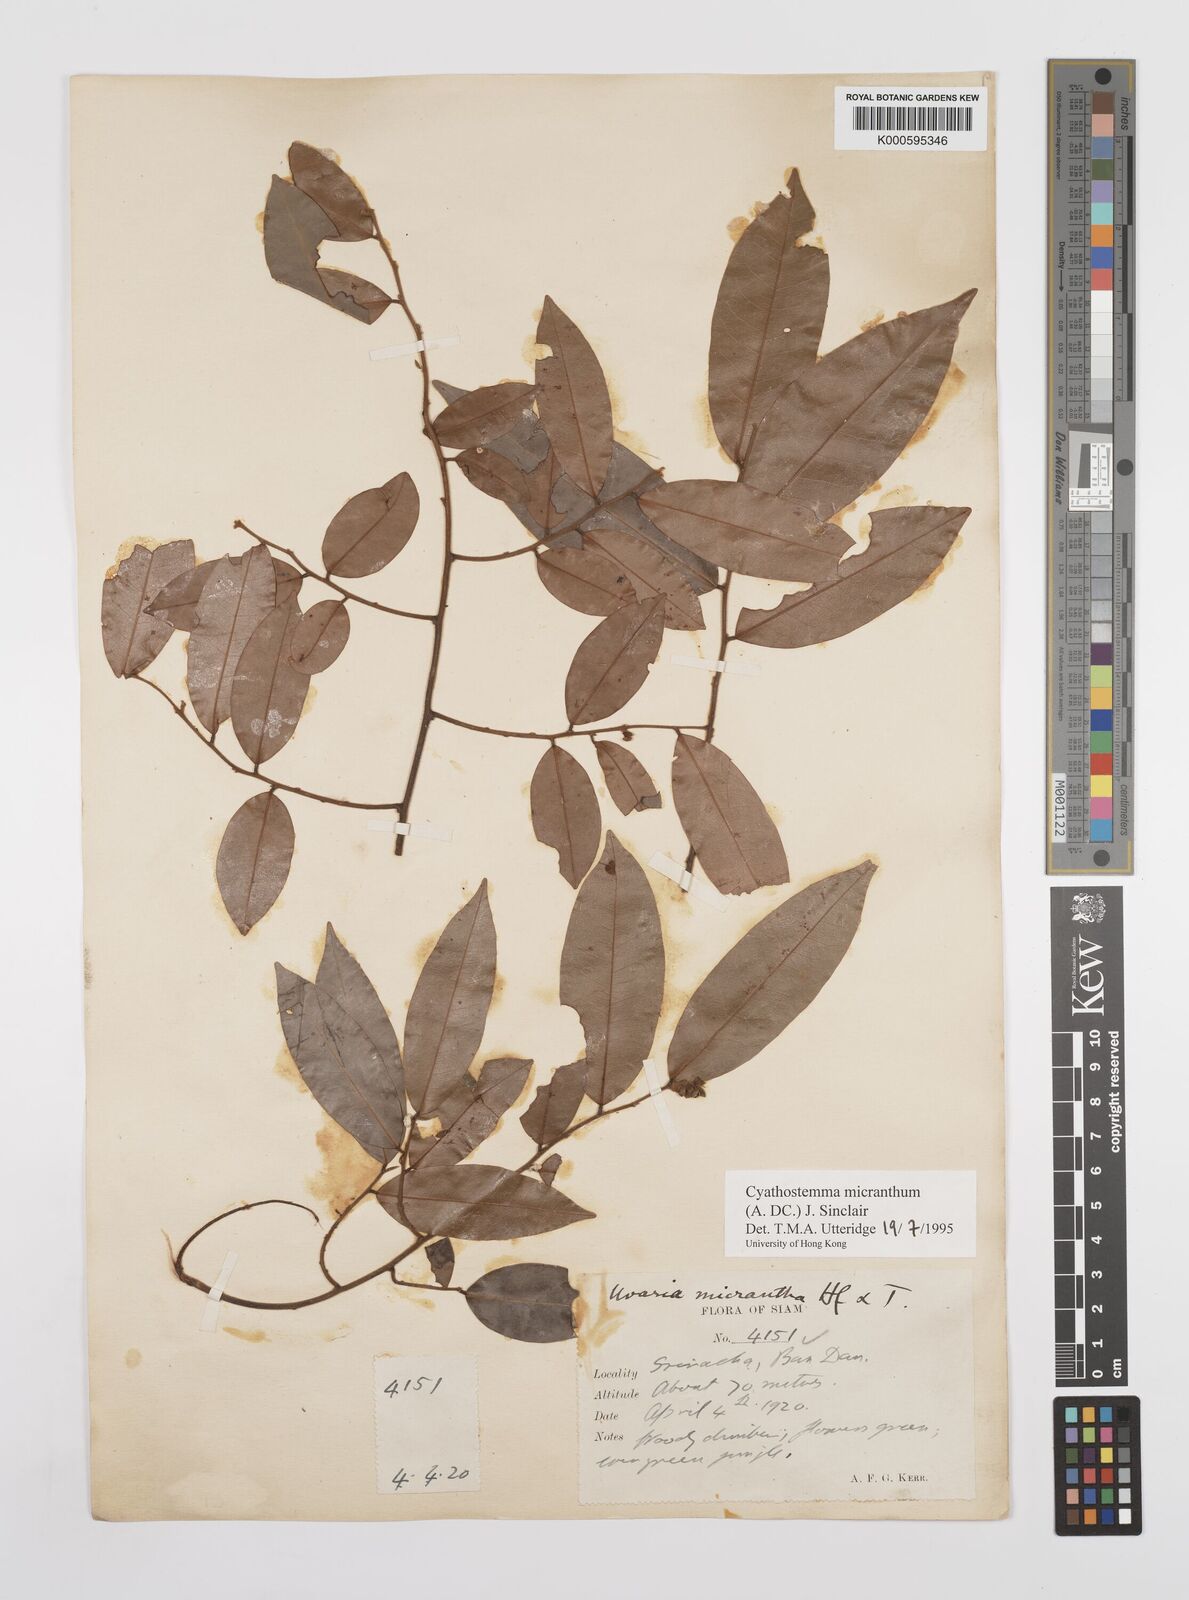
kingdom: Plantae
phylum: Tracheophyta
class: Magnoliopsida
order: Magnoliales
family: Annonaceae
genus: Uvaria
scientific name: Uvaria micrantha
